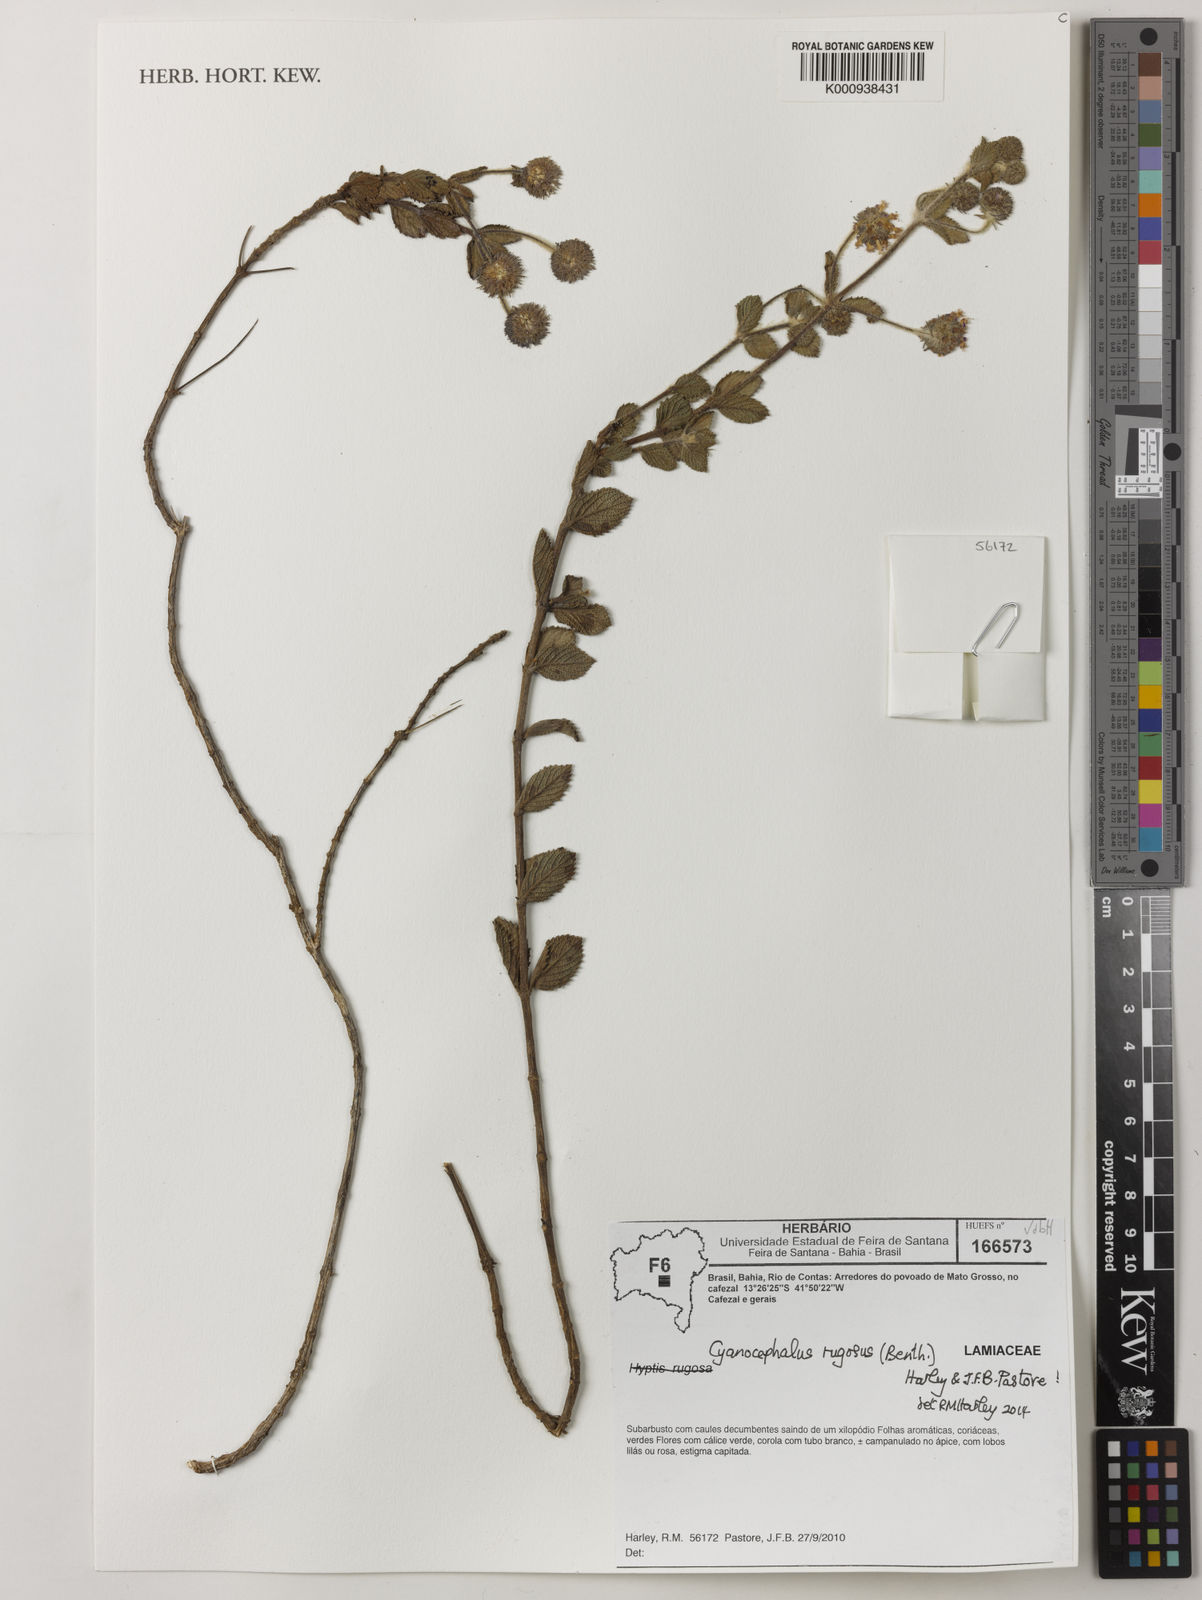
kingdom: Plantae
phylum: Tracheophyta
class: Magnoliopsida
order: Lamiales
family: Lamiaceae
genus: Cyanocephalus
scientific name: Cyanocephalus rugosus
